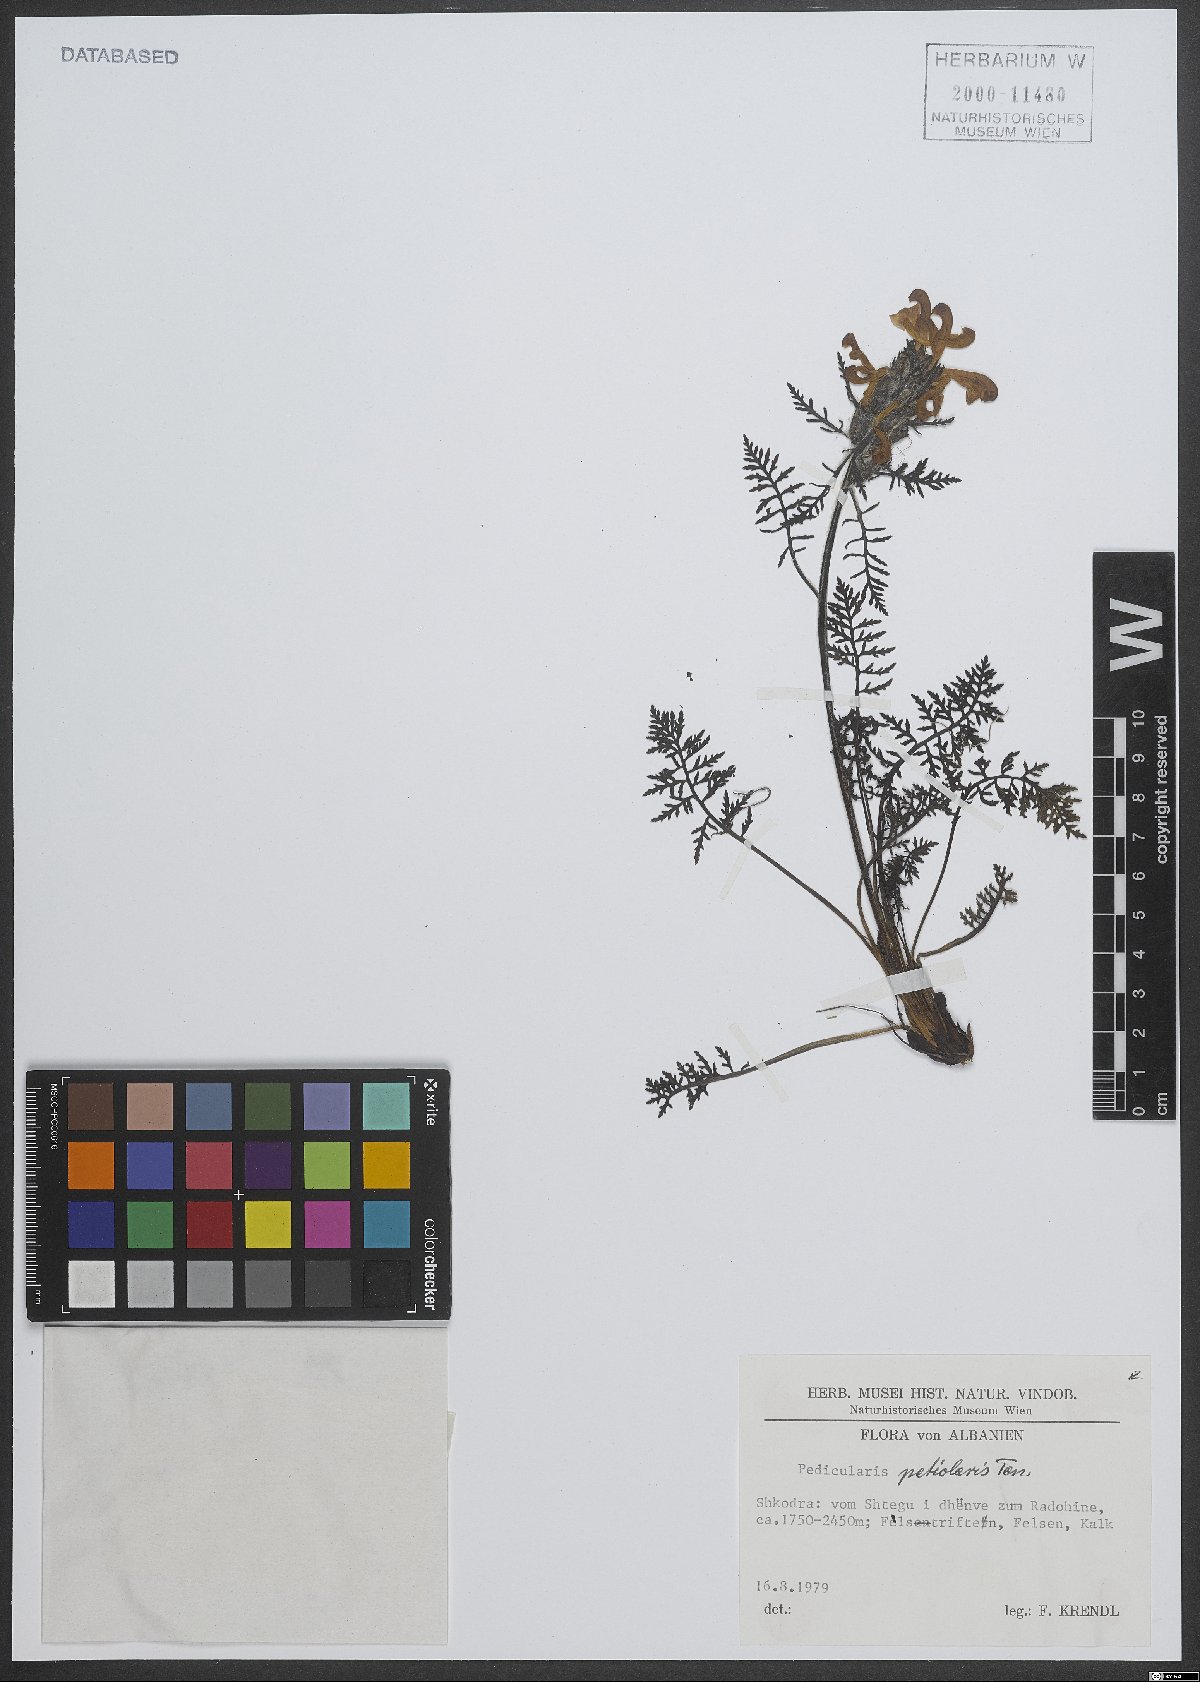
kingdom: Plantae
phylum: Tracheophyta
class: Magnoliopsida
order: Lamiales
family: Orobanchaceae
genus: Pedicularis
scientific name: Pedicularis petiolaris
